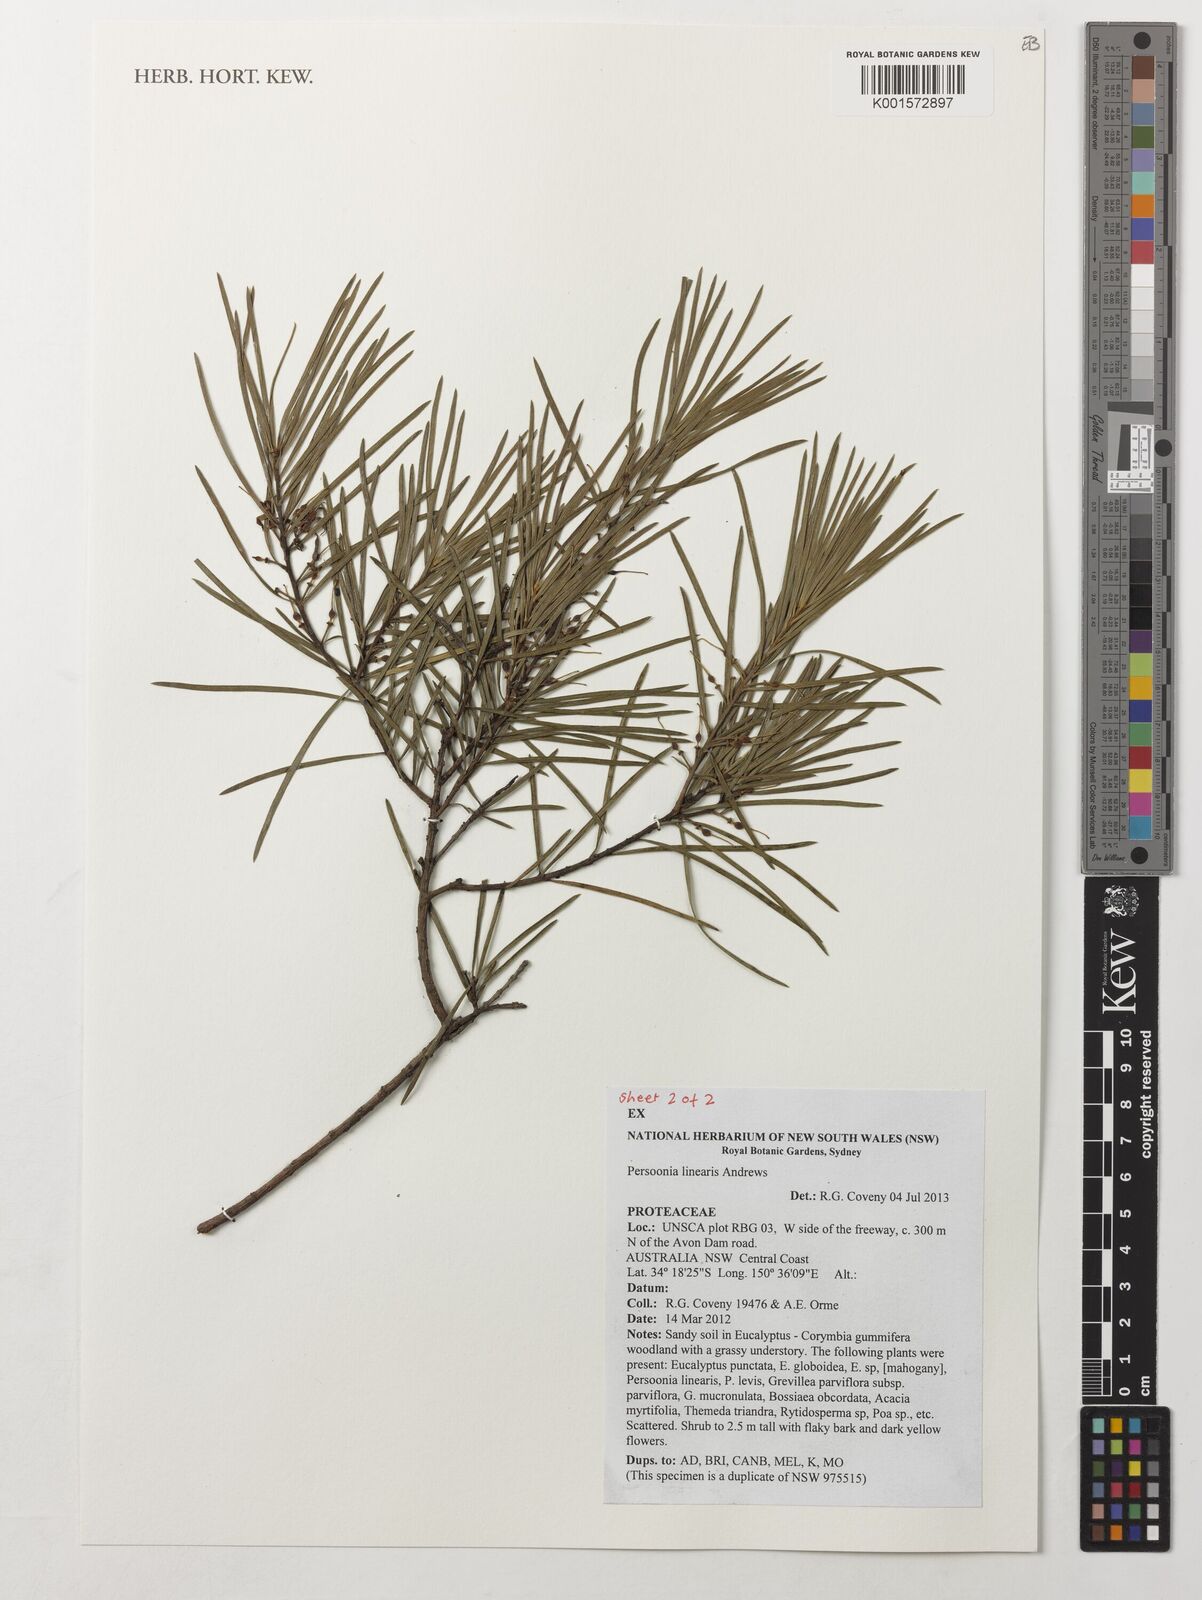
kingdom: Plantae
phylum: Tracheophyta
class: Magnoliopsida
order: Proteales
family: Proteaceae
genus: Persoonia
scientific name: Persoonia linearis
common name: Narrow-leaf geebung
